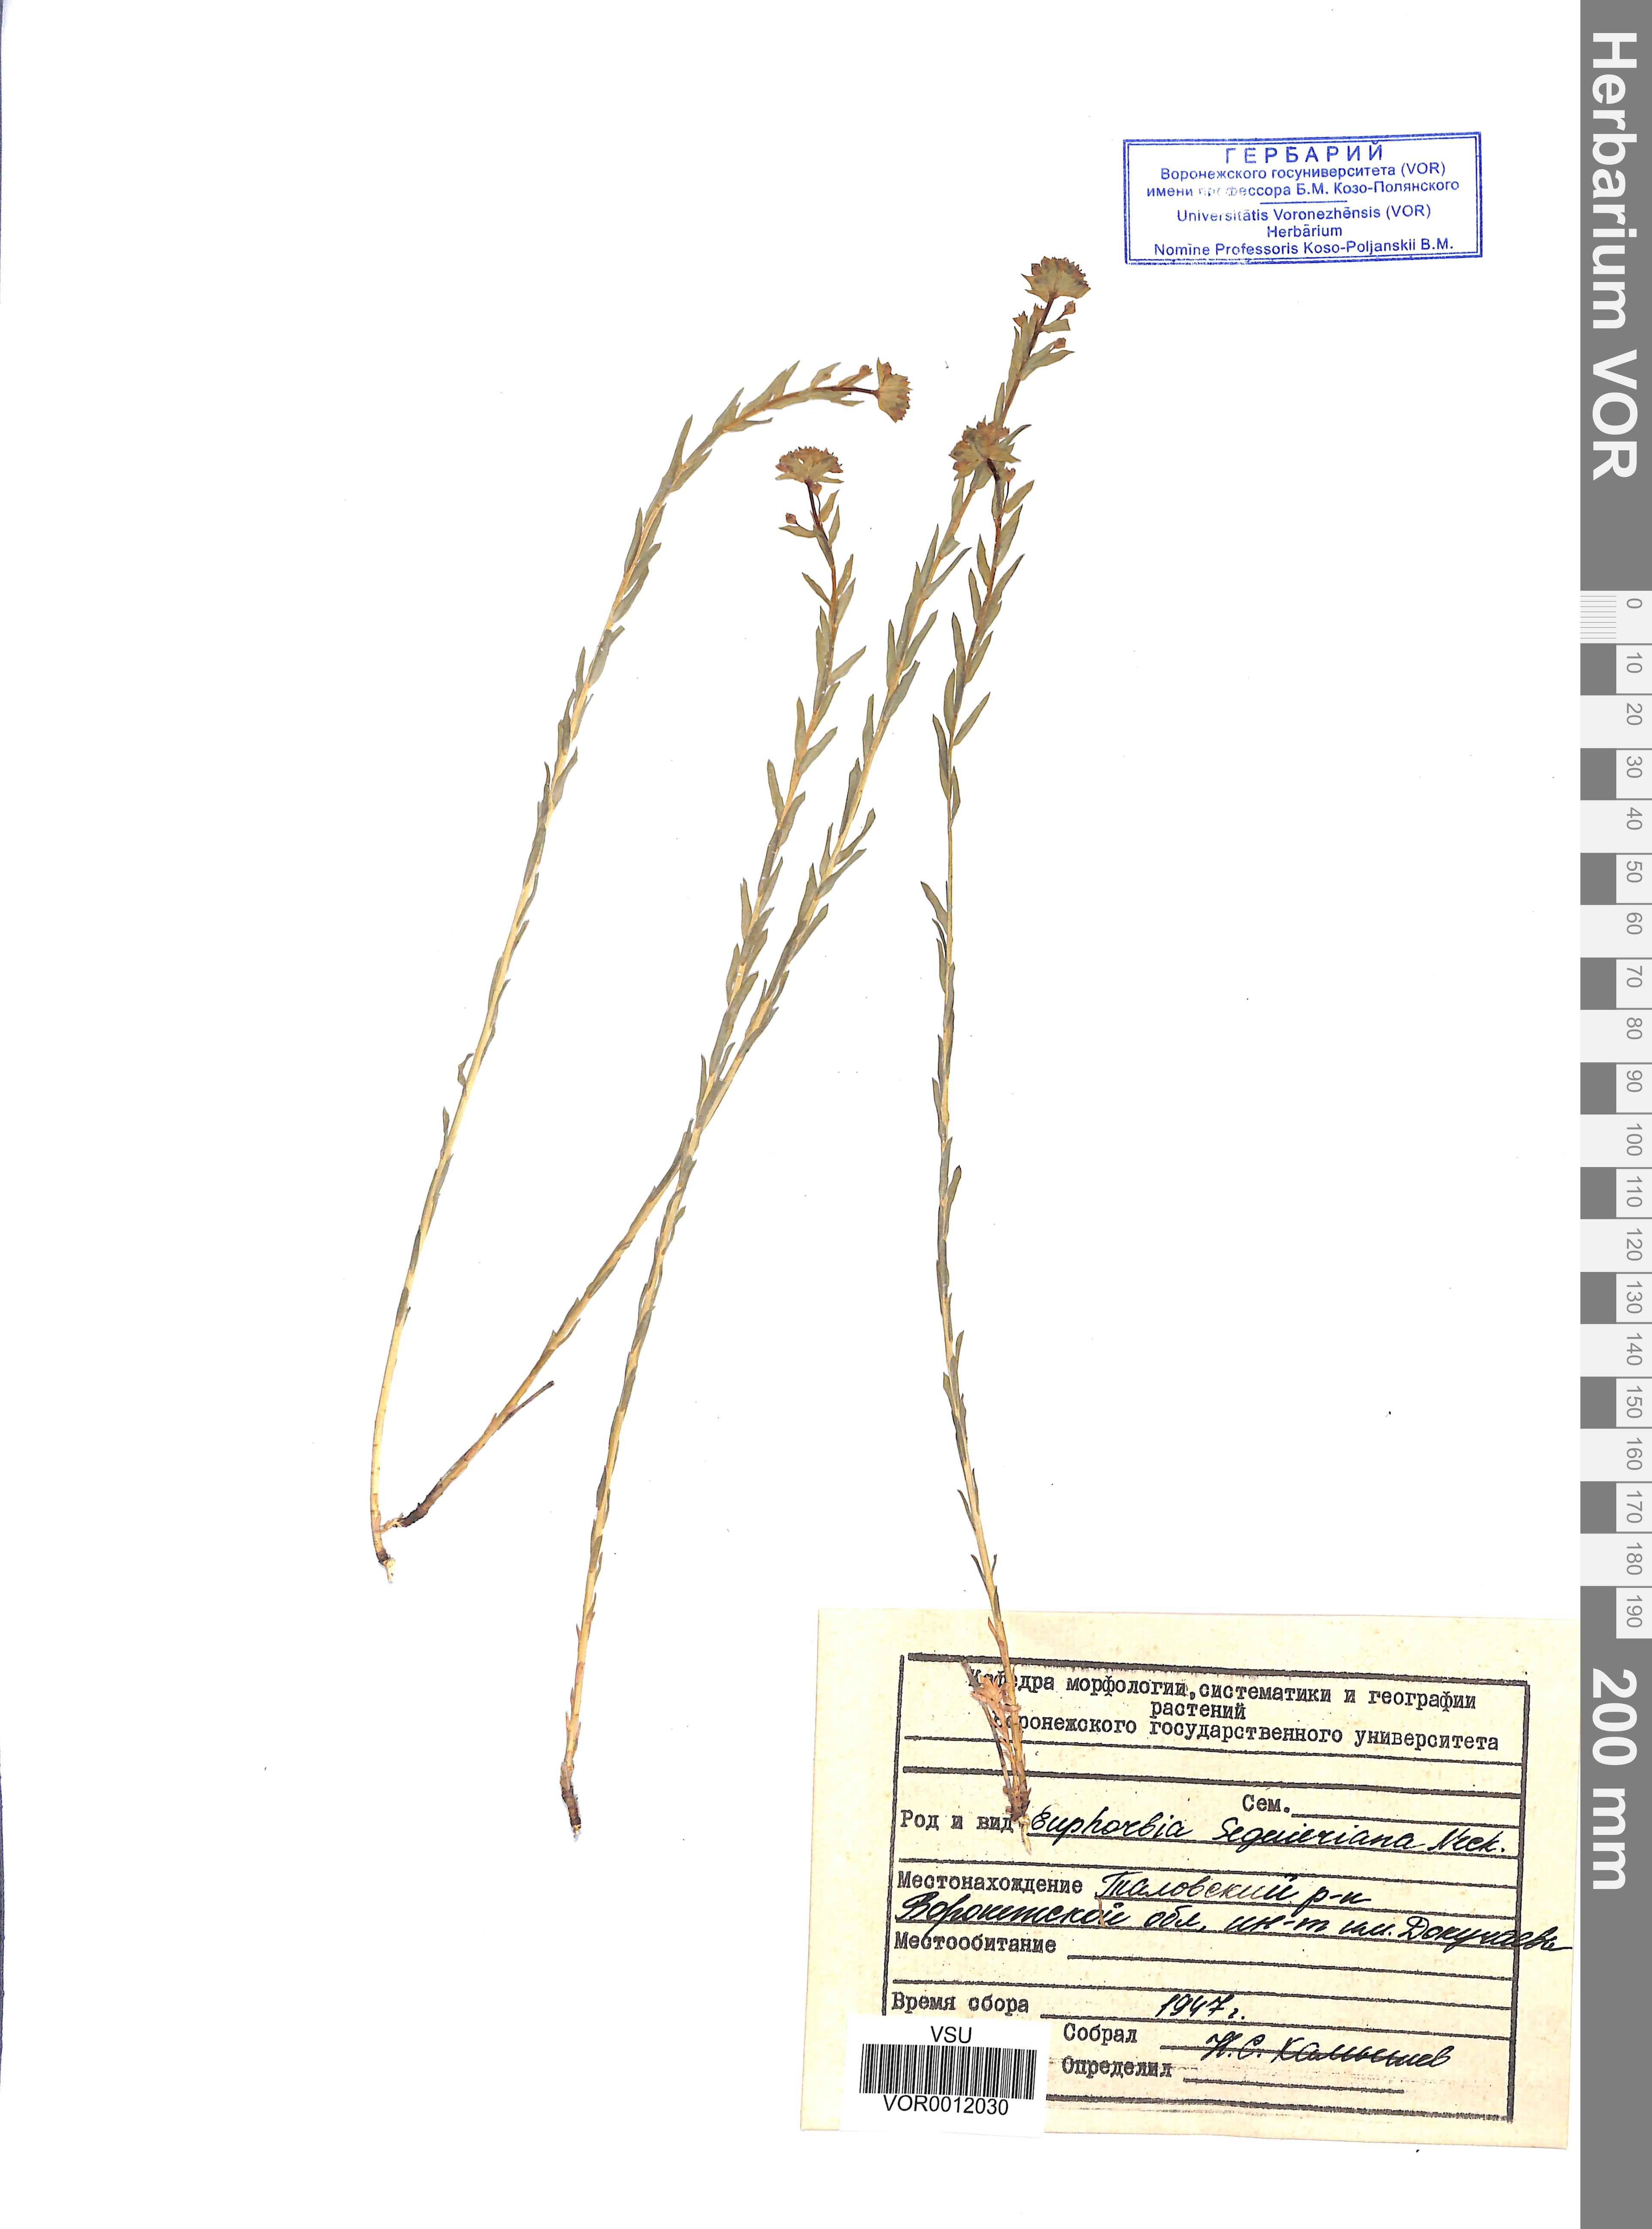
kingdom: Plantae
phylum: Tracheophyta
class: Magnoliopsida
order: Malpighiales
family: Euphorbiaceae
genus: Euphorbia
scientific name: Euphorbia seguieriana
